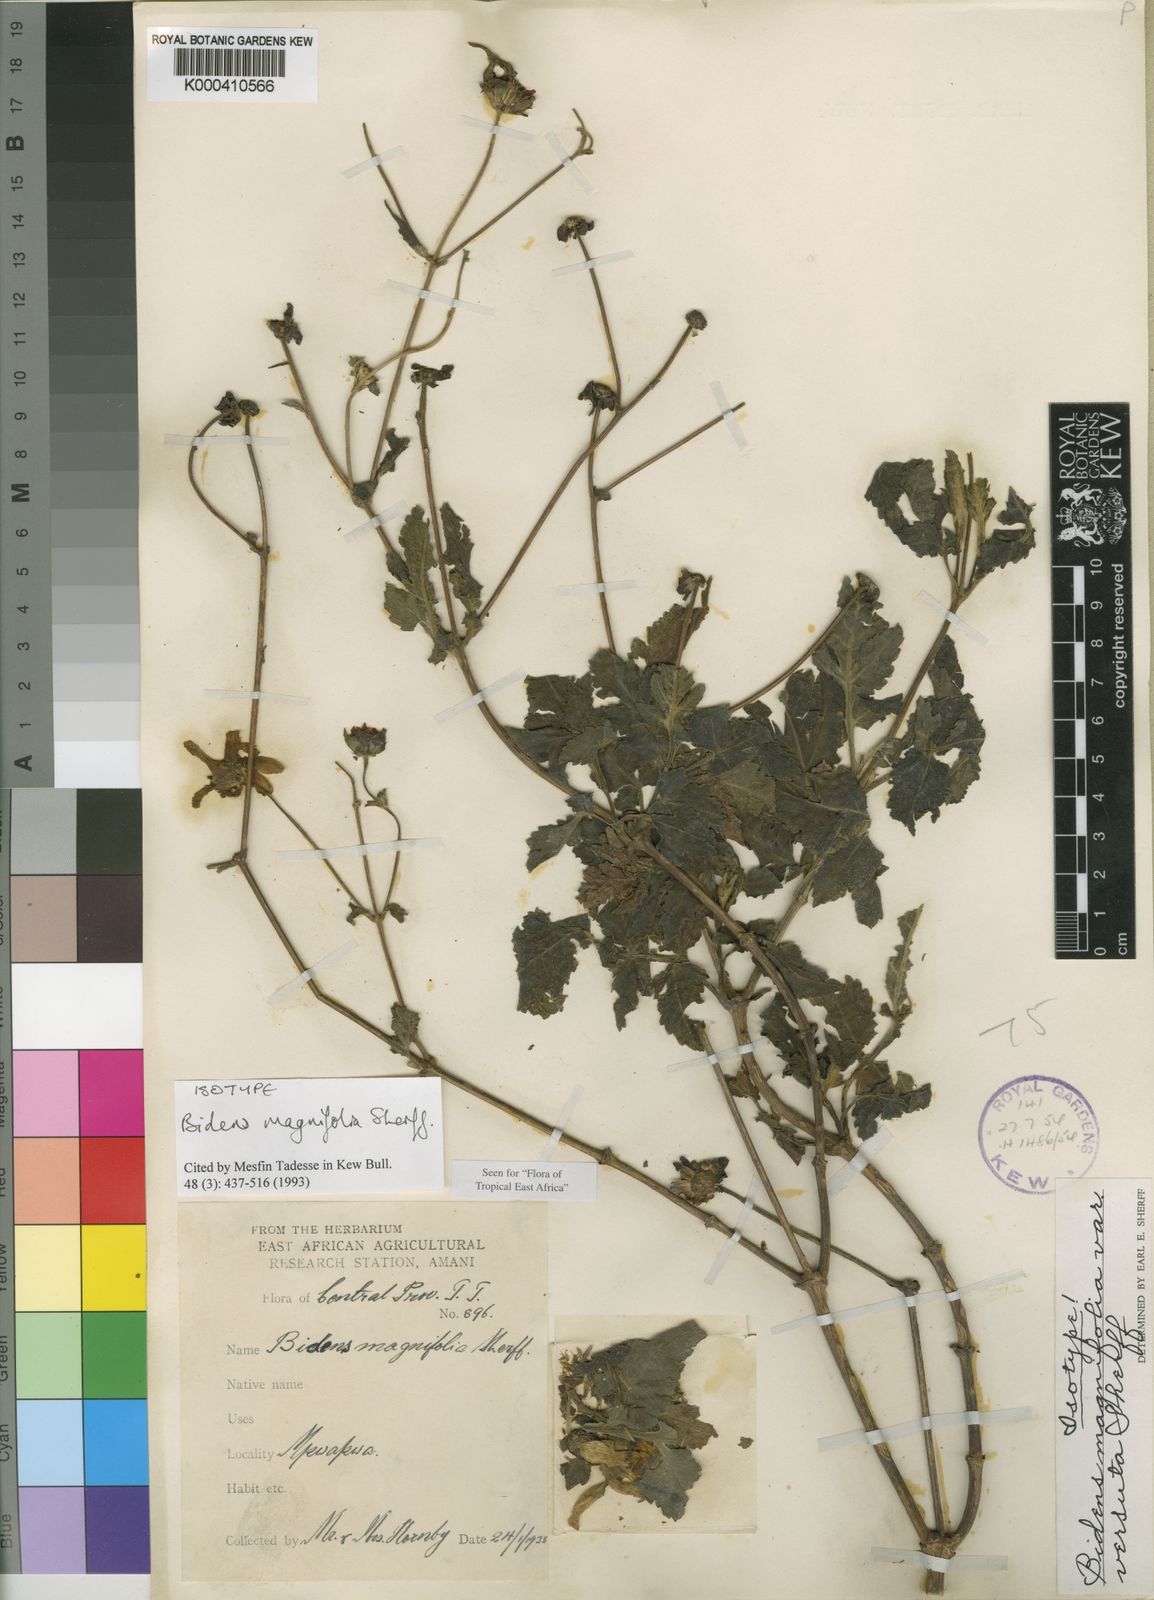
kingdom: Plantae
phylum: Tracheophyta
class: Magnoliopsida
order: Asterales
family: Asteraceae
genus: Bidens
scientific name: Bidens magnifolia
